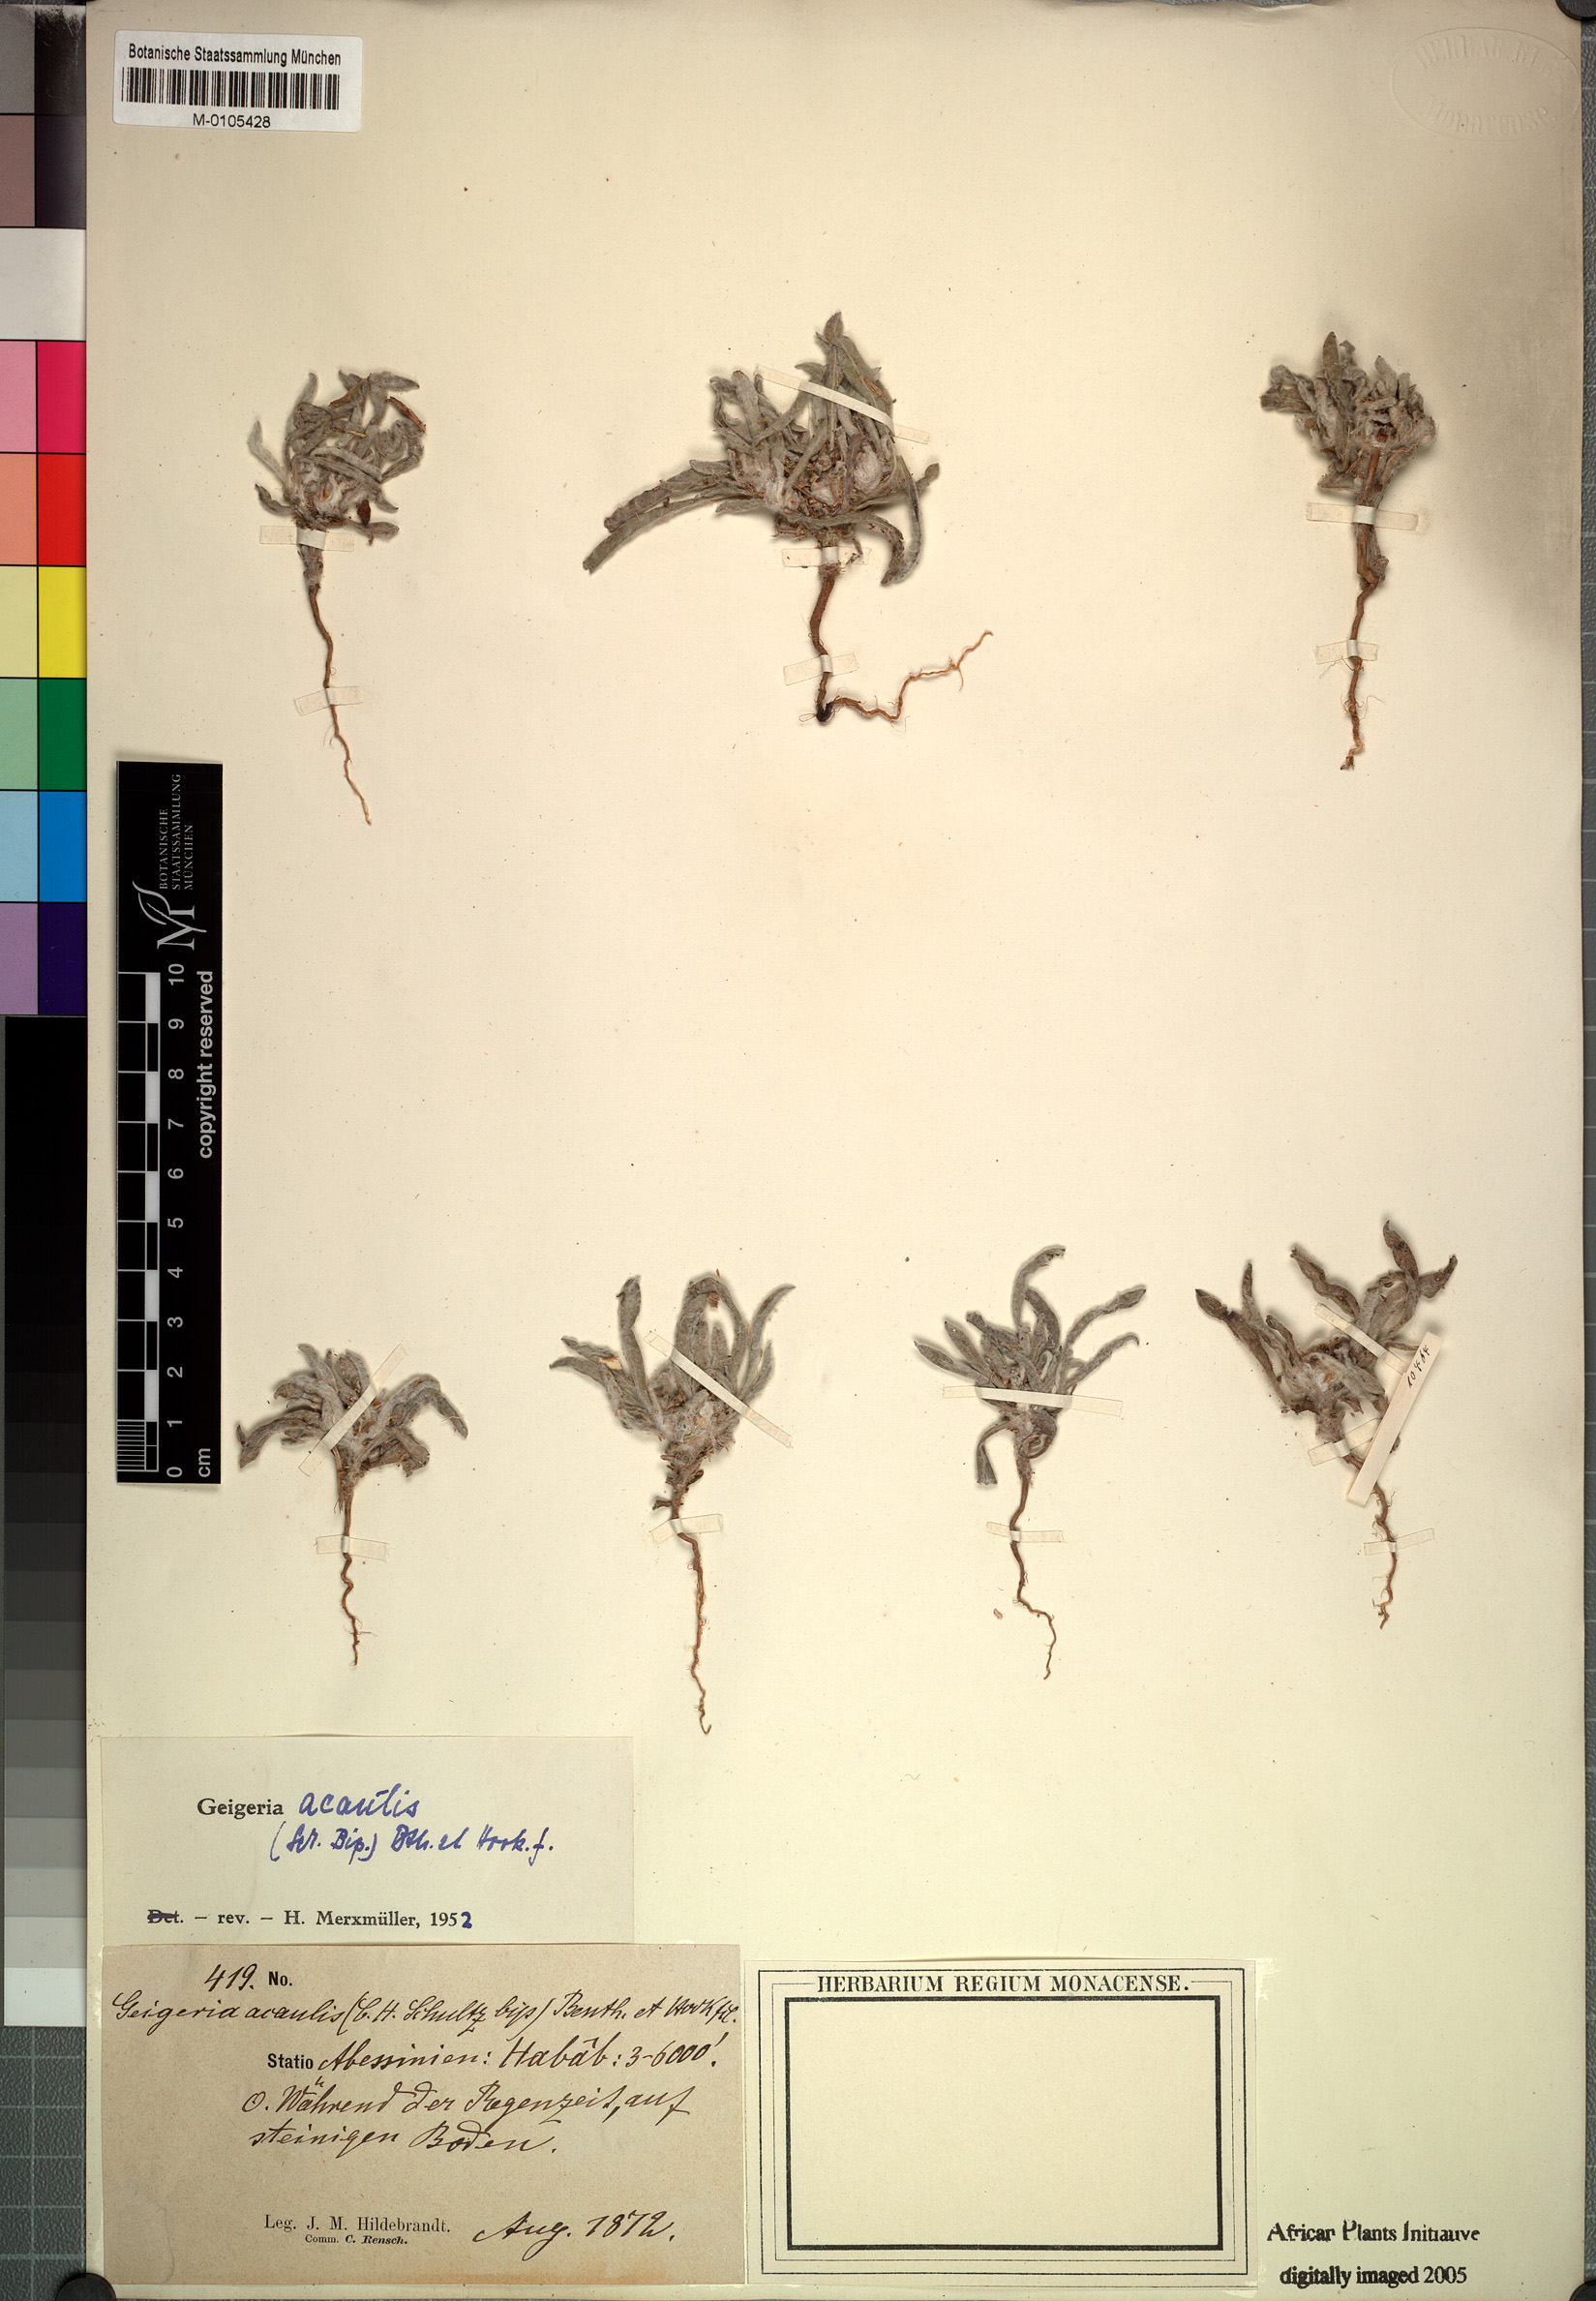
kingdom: Plantae
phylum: Tracheophyta
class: Magnoliopsida
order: Asterales
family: Asteraceae
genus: Geigeria
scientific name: Geigeria acaulis
